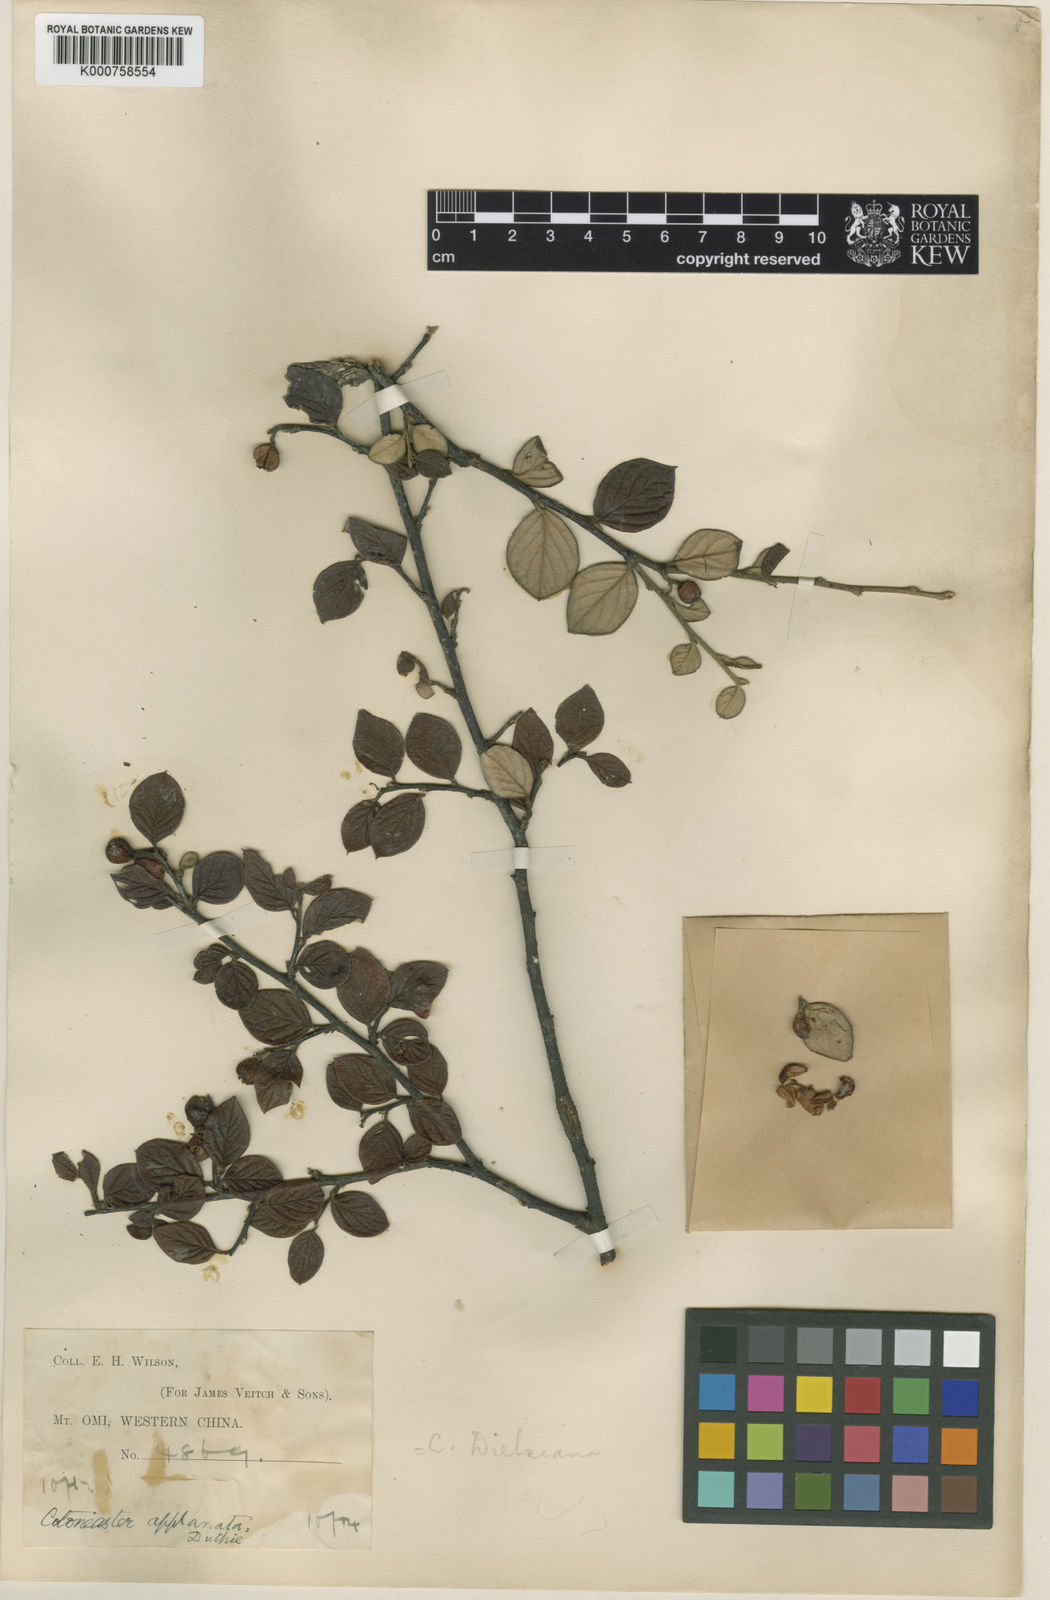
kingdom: Plantae
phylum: Tracheophyta
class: Magnoliopsida
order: Rosales
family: Rosaceae
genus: Cotoneaster
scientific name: Cotoneaster
